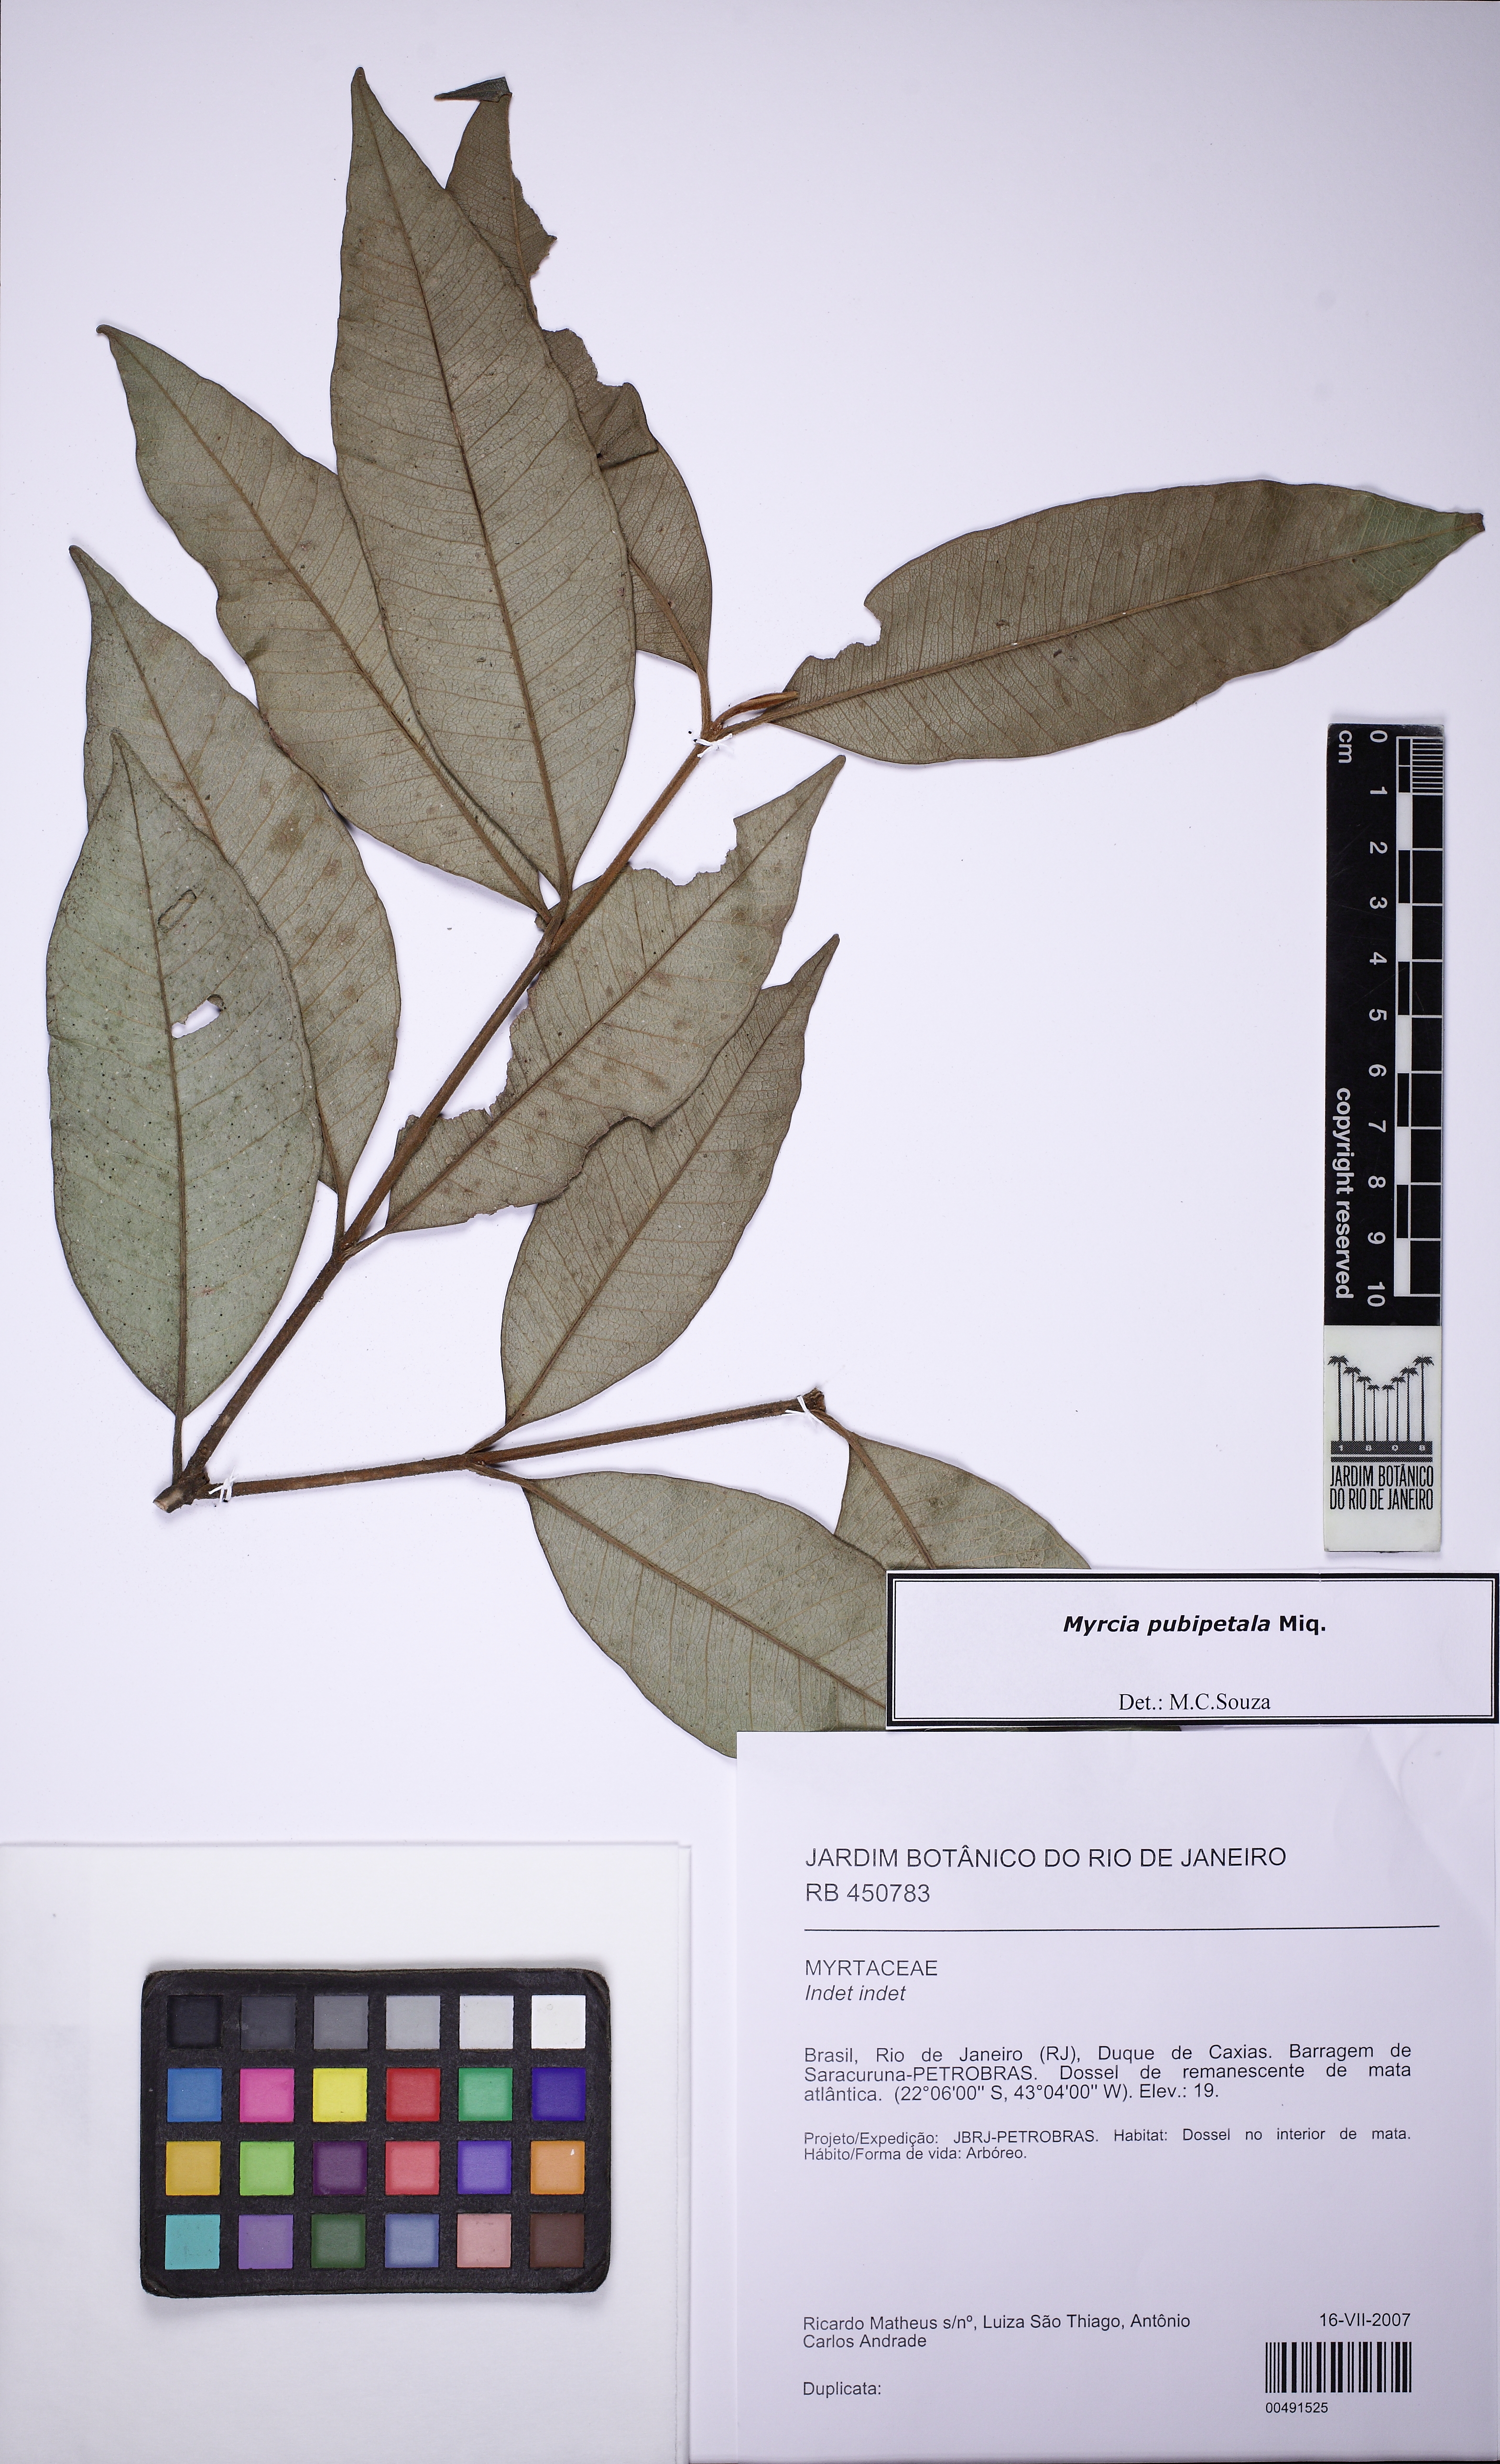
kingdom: Plantae
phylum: Tracheophyta
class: Magnoliopsida
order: Myrtales
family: Myrtaceae
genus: Myrcia
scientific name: Myrcia pubipetala
